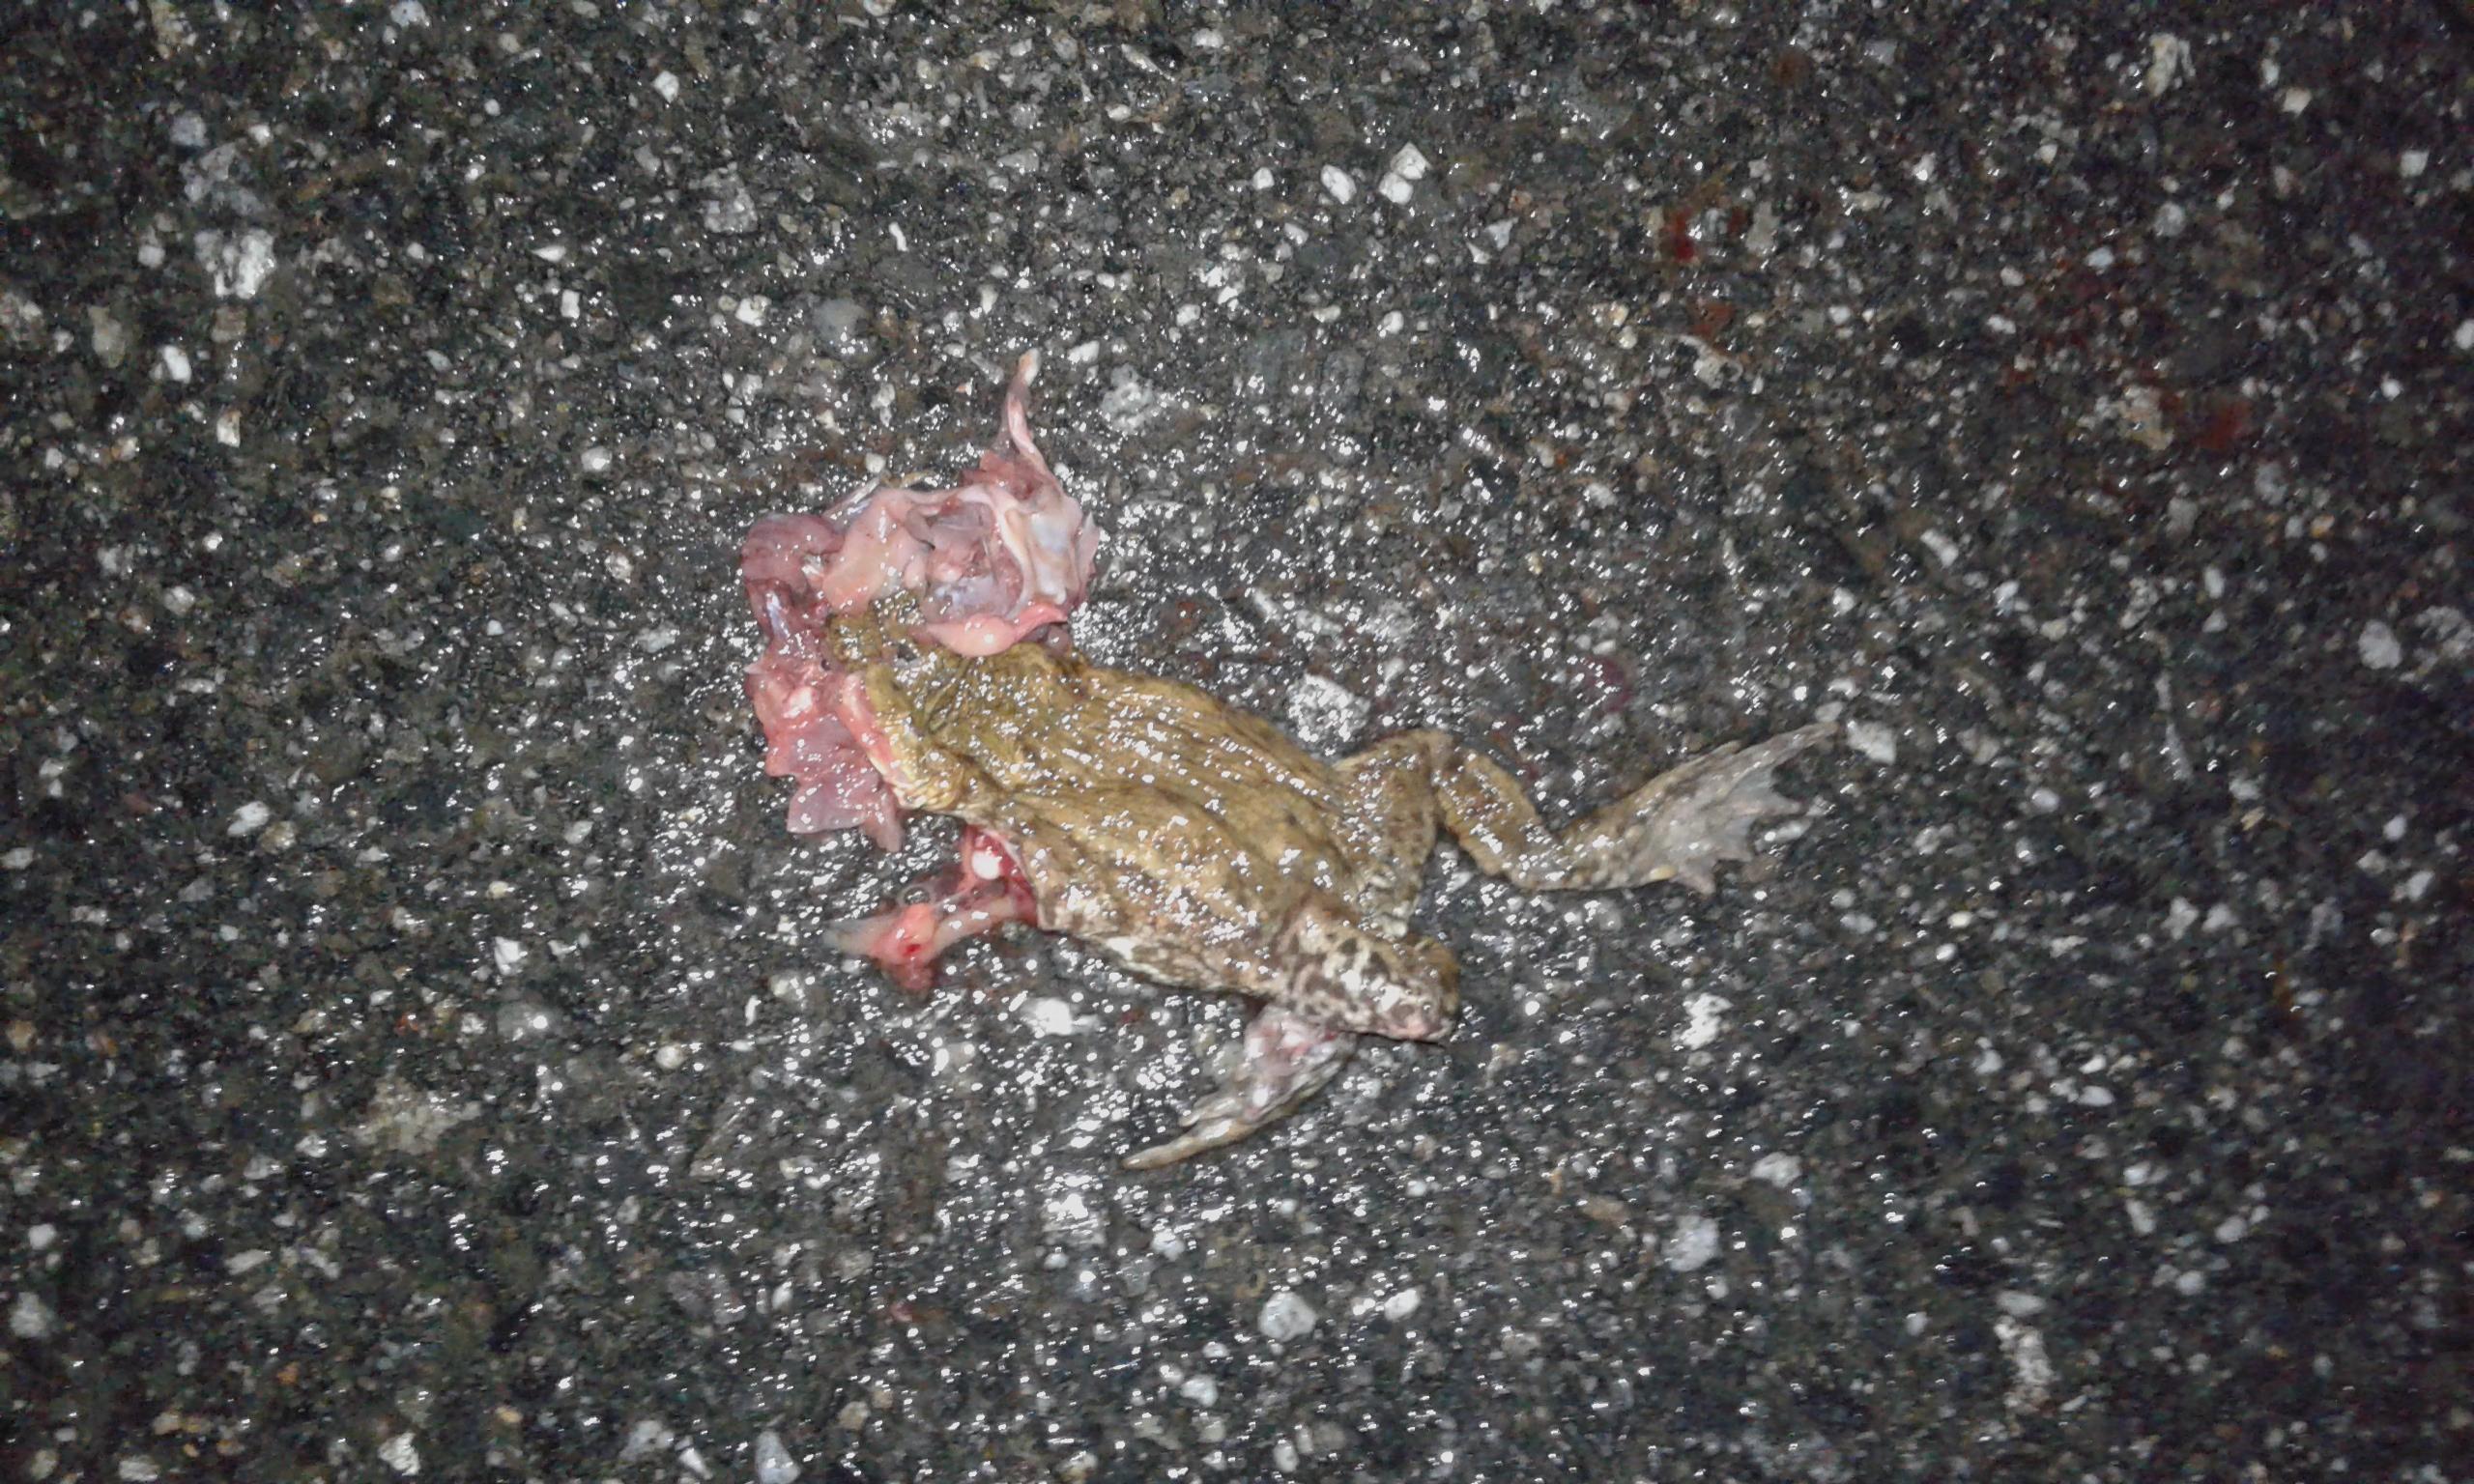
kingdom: Animalia
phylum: Chordata
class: Amphibia
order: Anura
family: Bufonidae
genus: Bufo
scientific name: Bufo bufo
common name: Common toad
